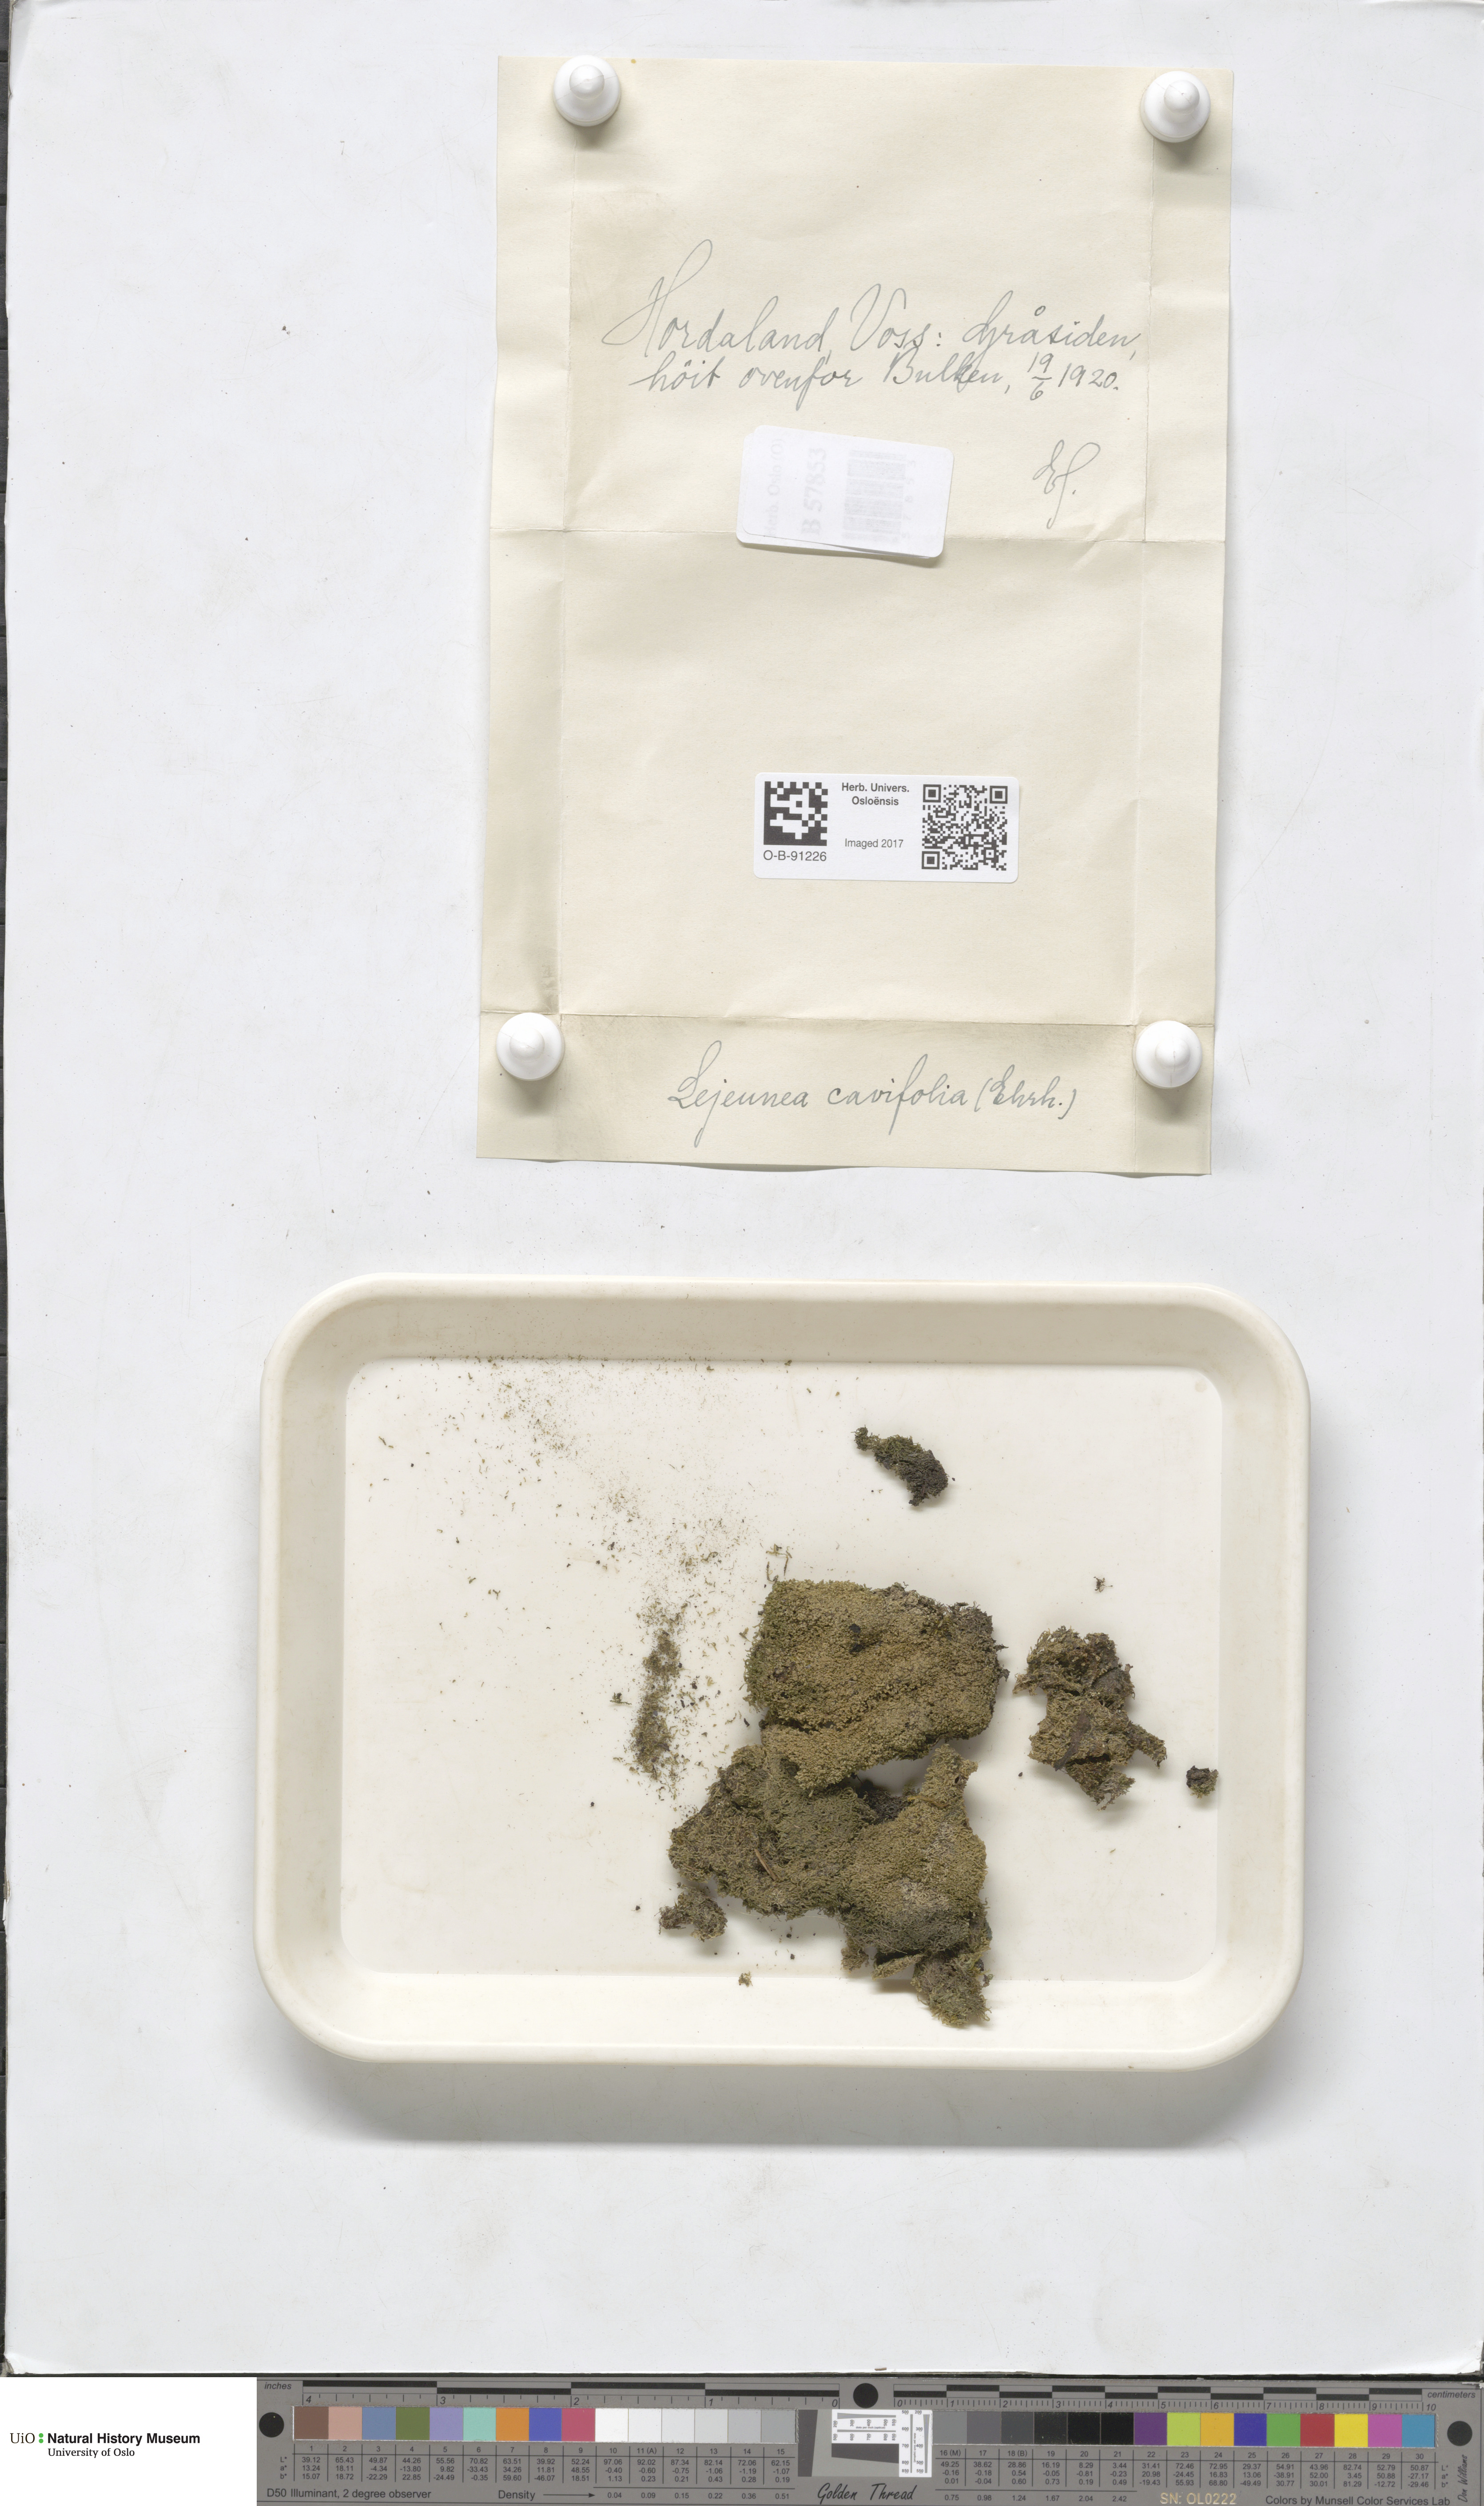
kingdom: Plantae
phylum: Marchantiophyta
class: Jungermanniopsida
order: Porellales
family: Lejeuneaceae
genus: Lejeunea
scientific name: Lejeunea cavifolia
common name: Least pouncewort
